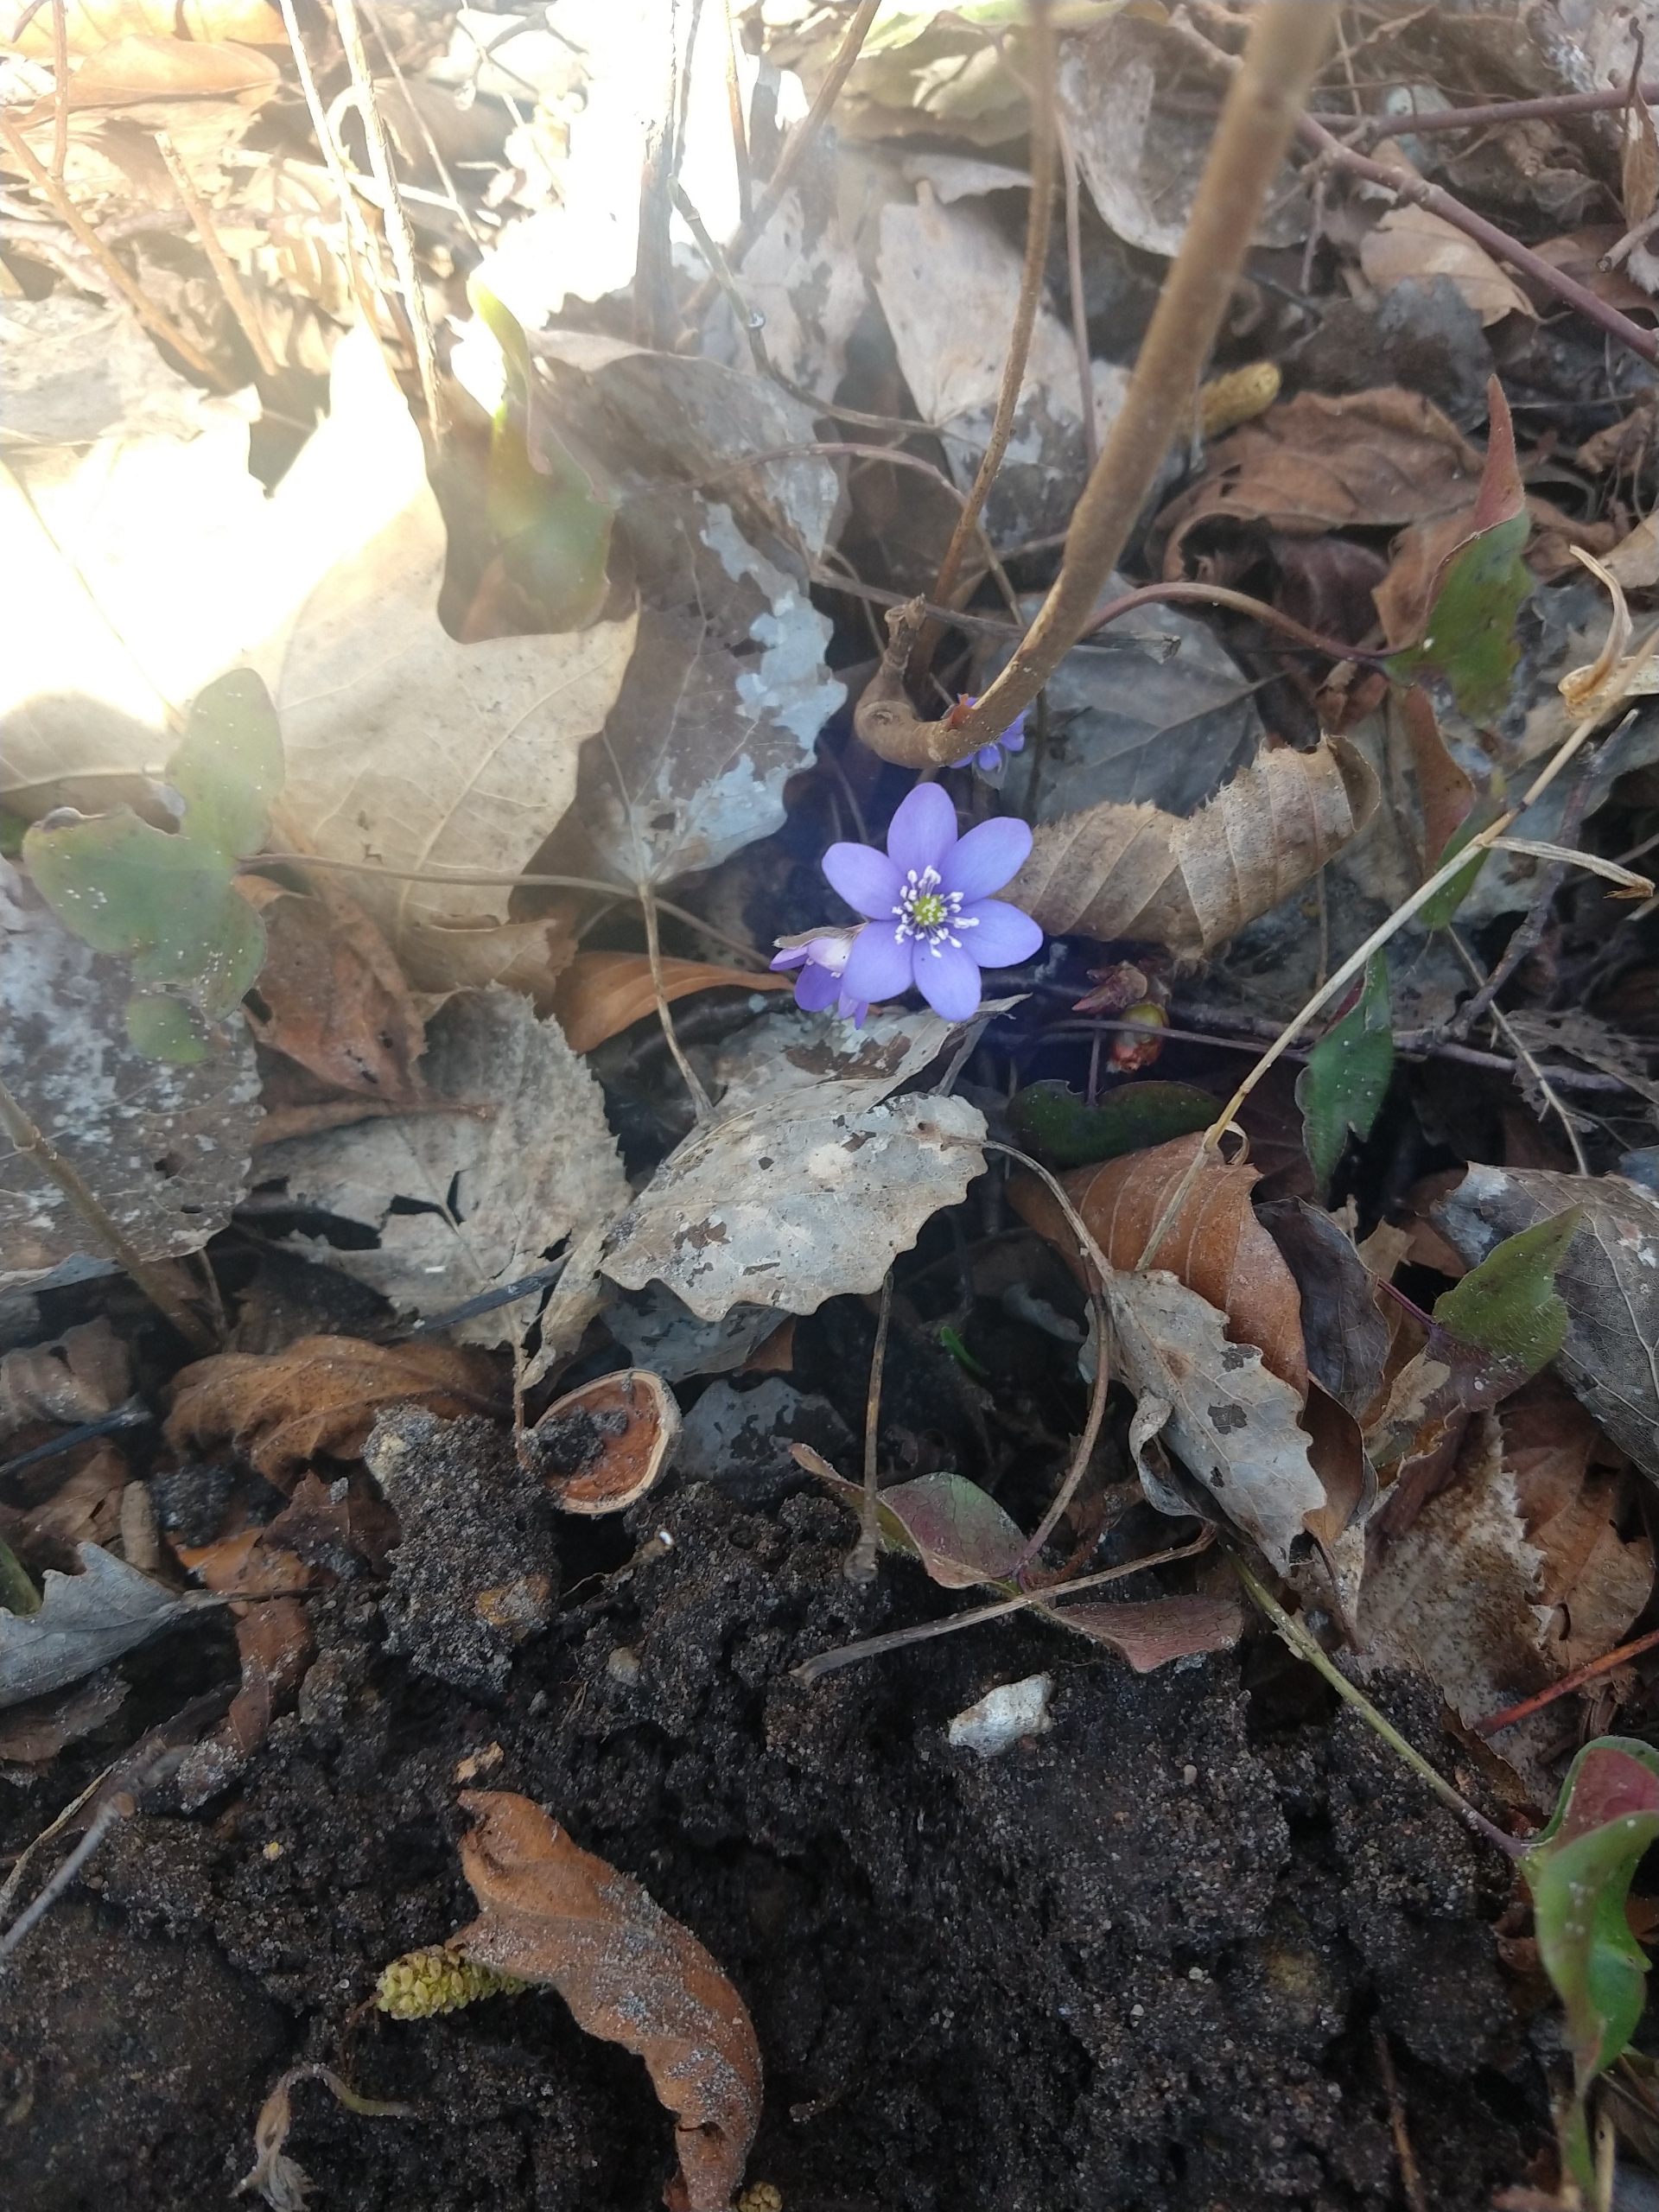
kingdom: Plantae
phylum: Tracheophyta
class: Magnoliopsida
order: Ranunculales
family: Ranunculaceae
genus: Hepatica
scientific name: Hepatica nobilis
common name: Blå anemone
